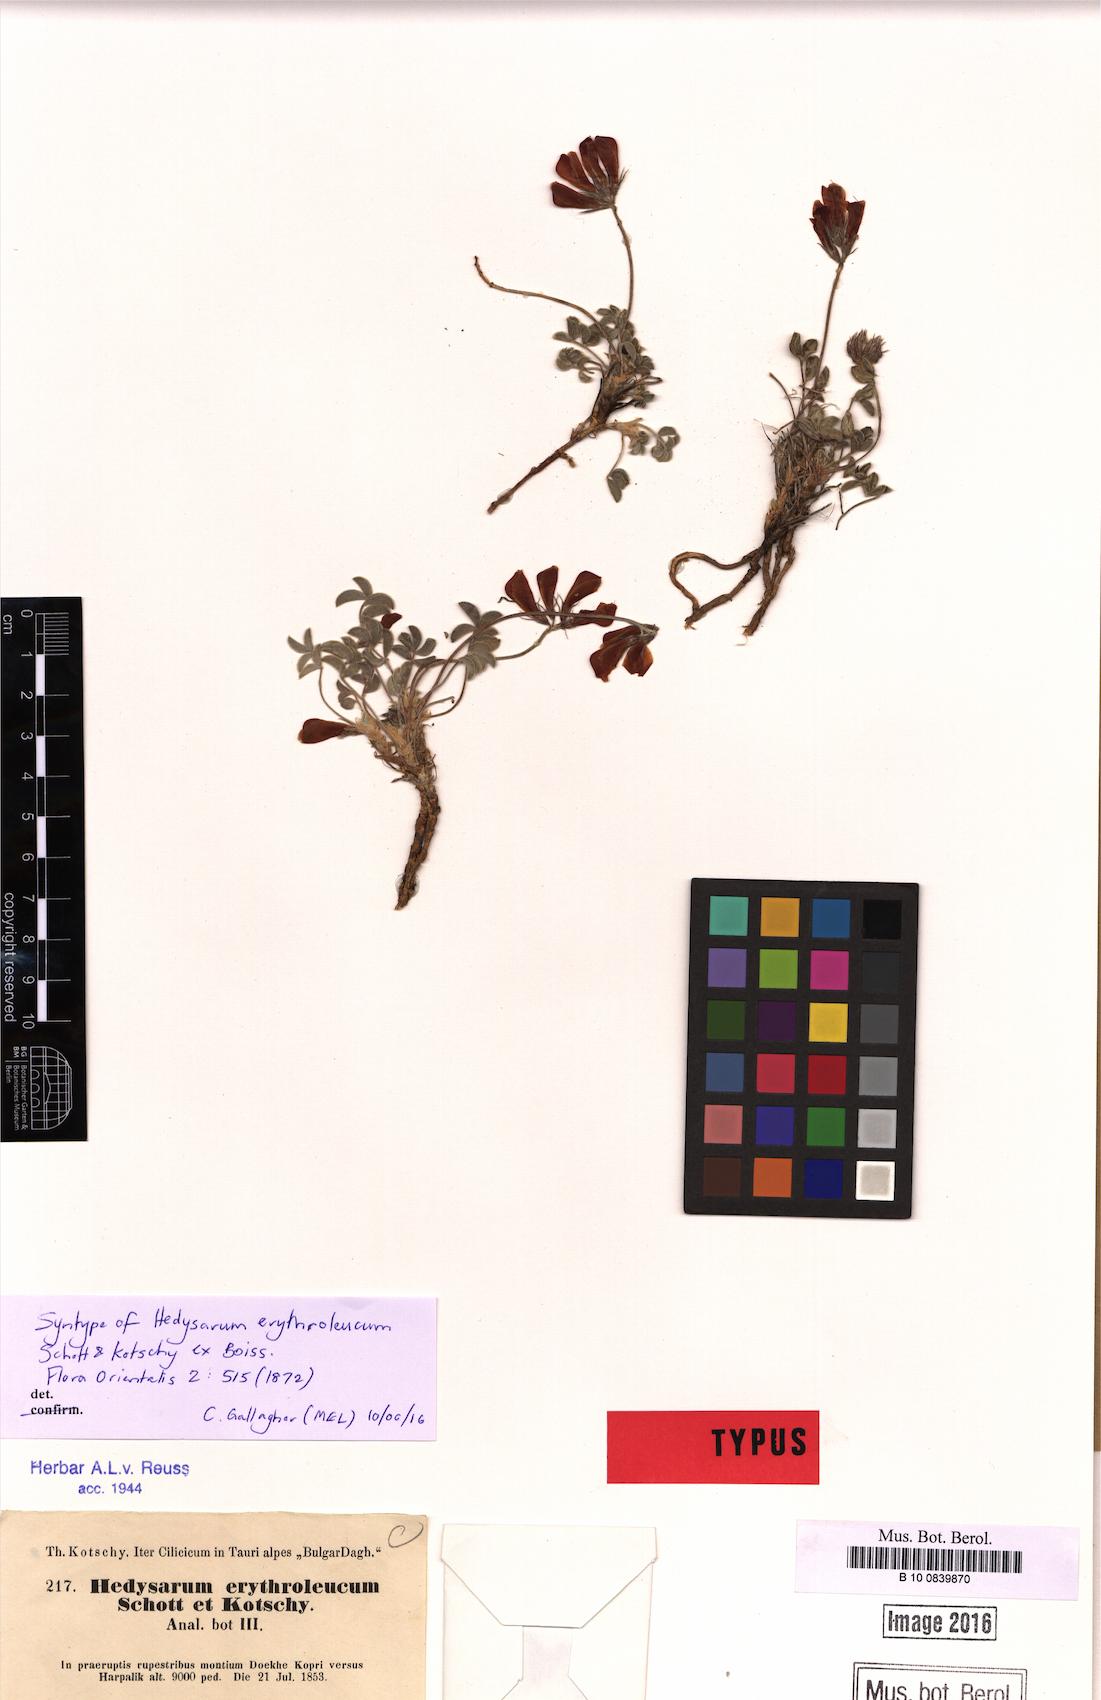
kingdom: Plantae
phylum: Tracheophyta
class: Magnoliopsida
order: Fabales
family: Fabaceae
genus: Hedysarum
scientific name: Hedysarum erythroleucum
